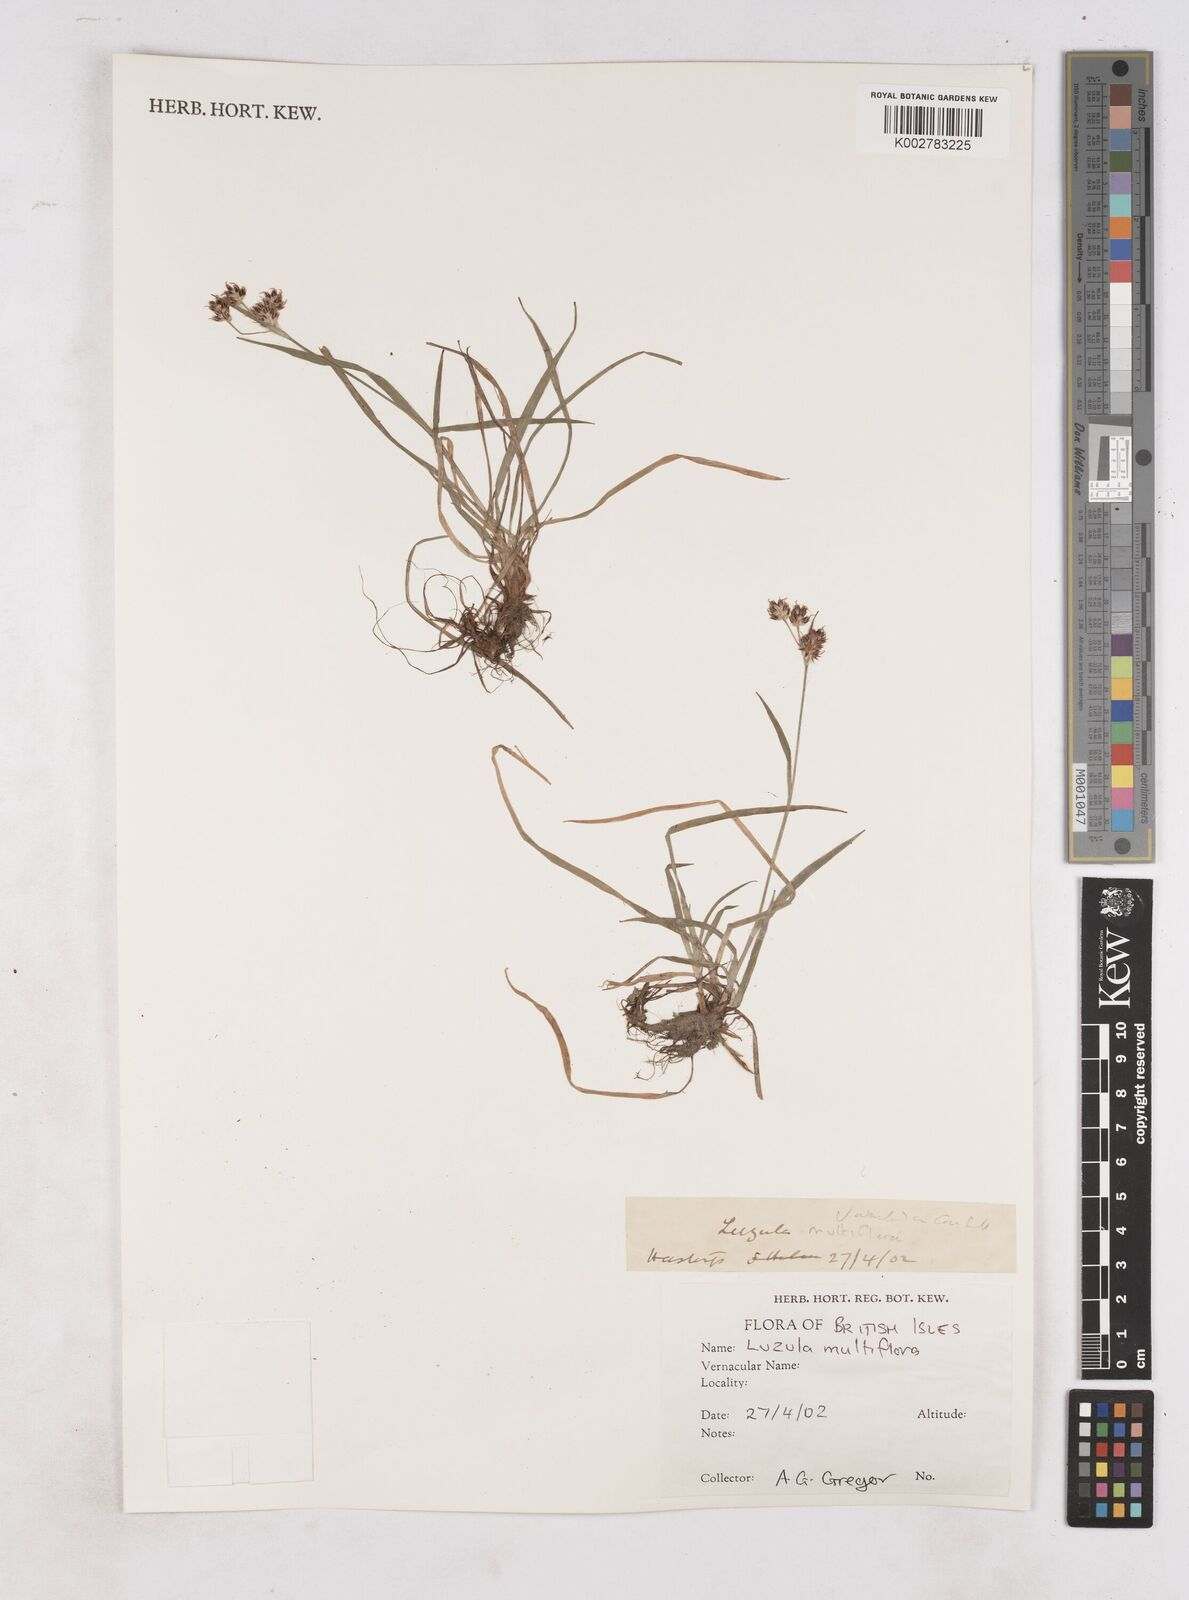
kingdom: Plantae
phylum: Tracheophyta
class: Liliopsida
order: Poales
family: Juncaceae
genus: Luzula
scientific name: Luzula multiflora
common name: Heath wood-rush
